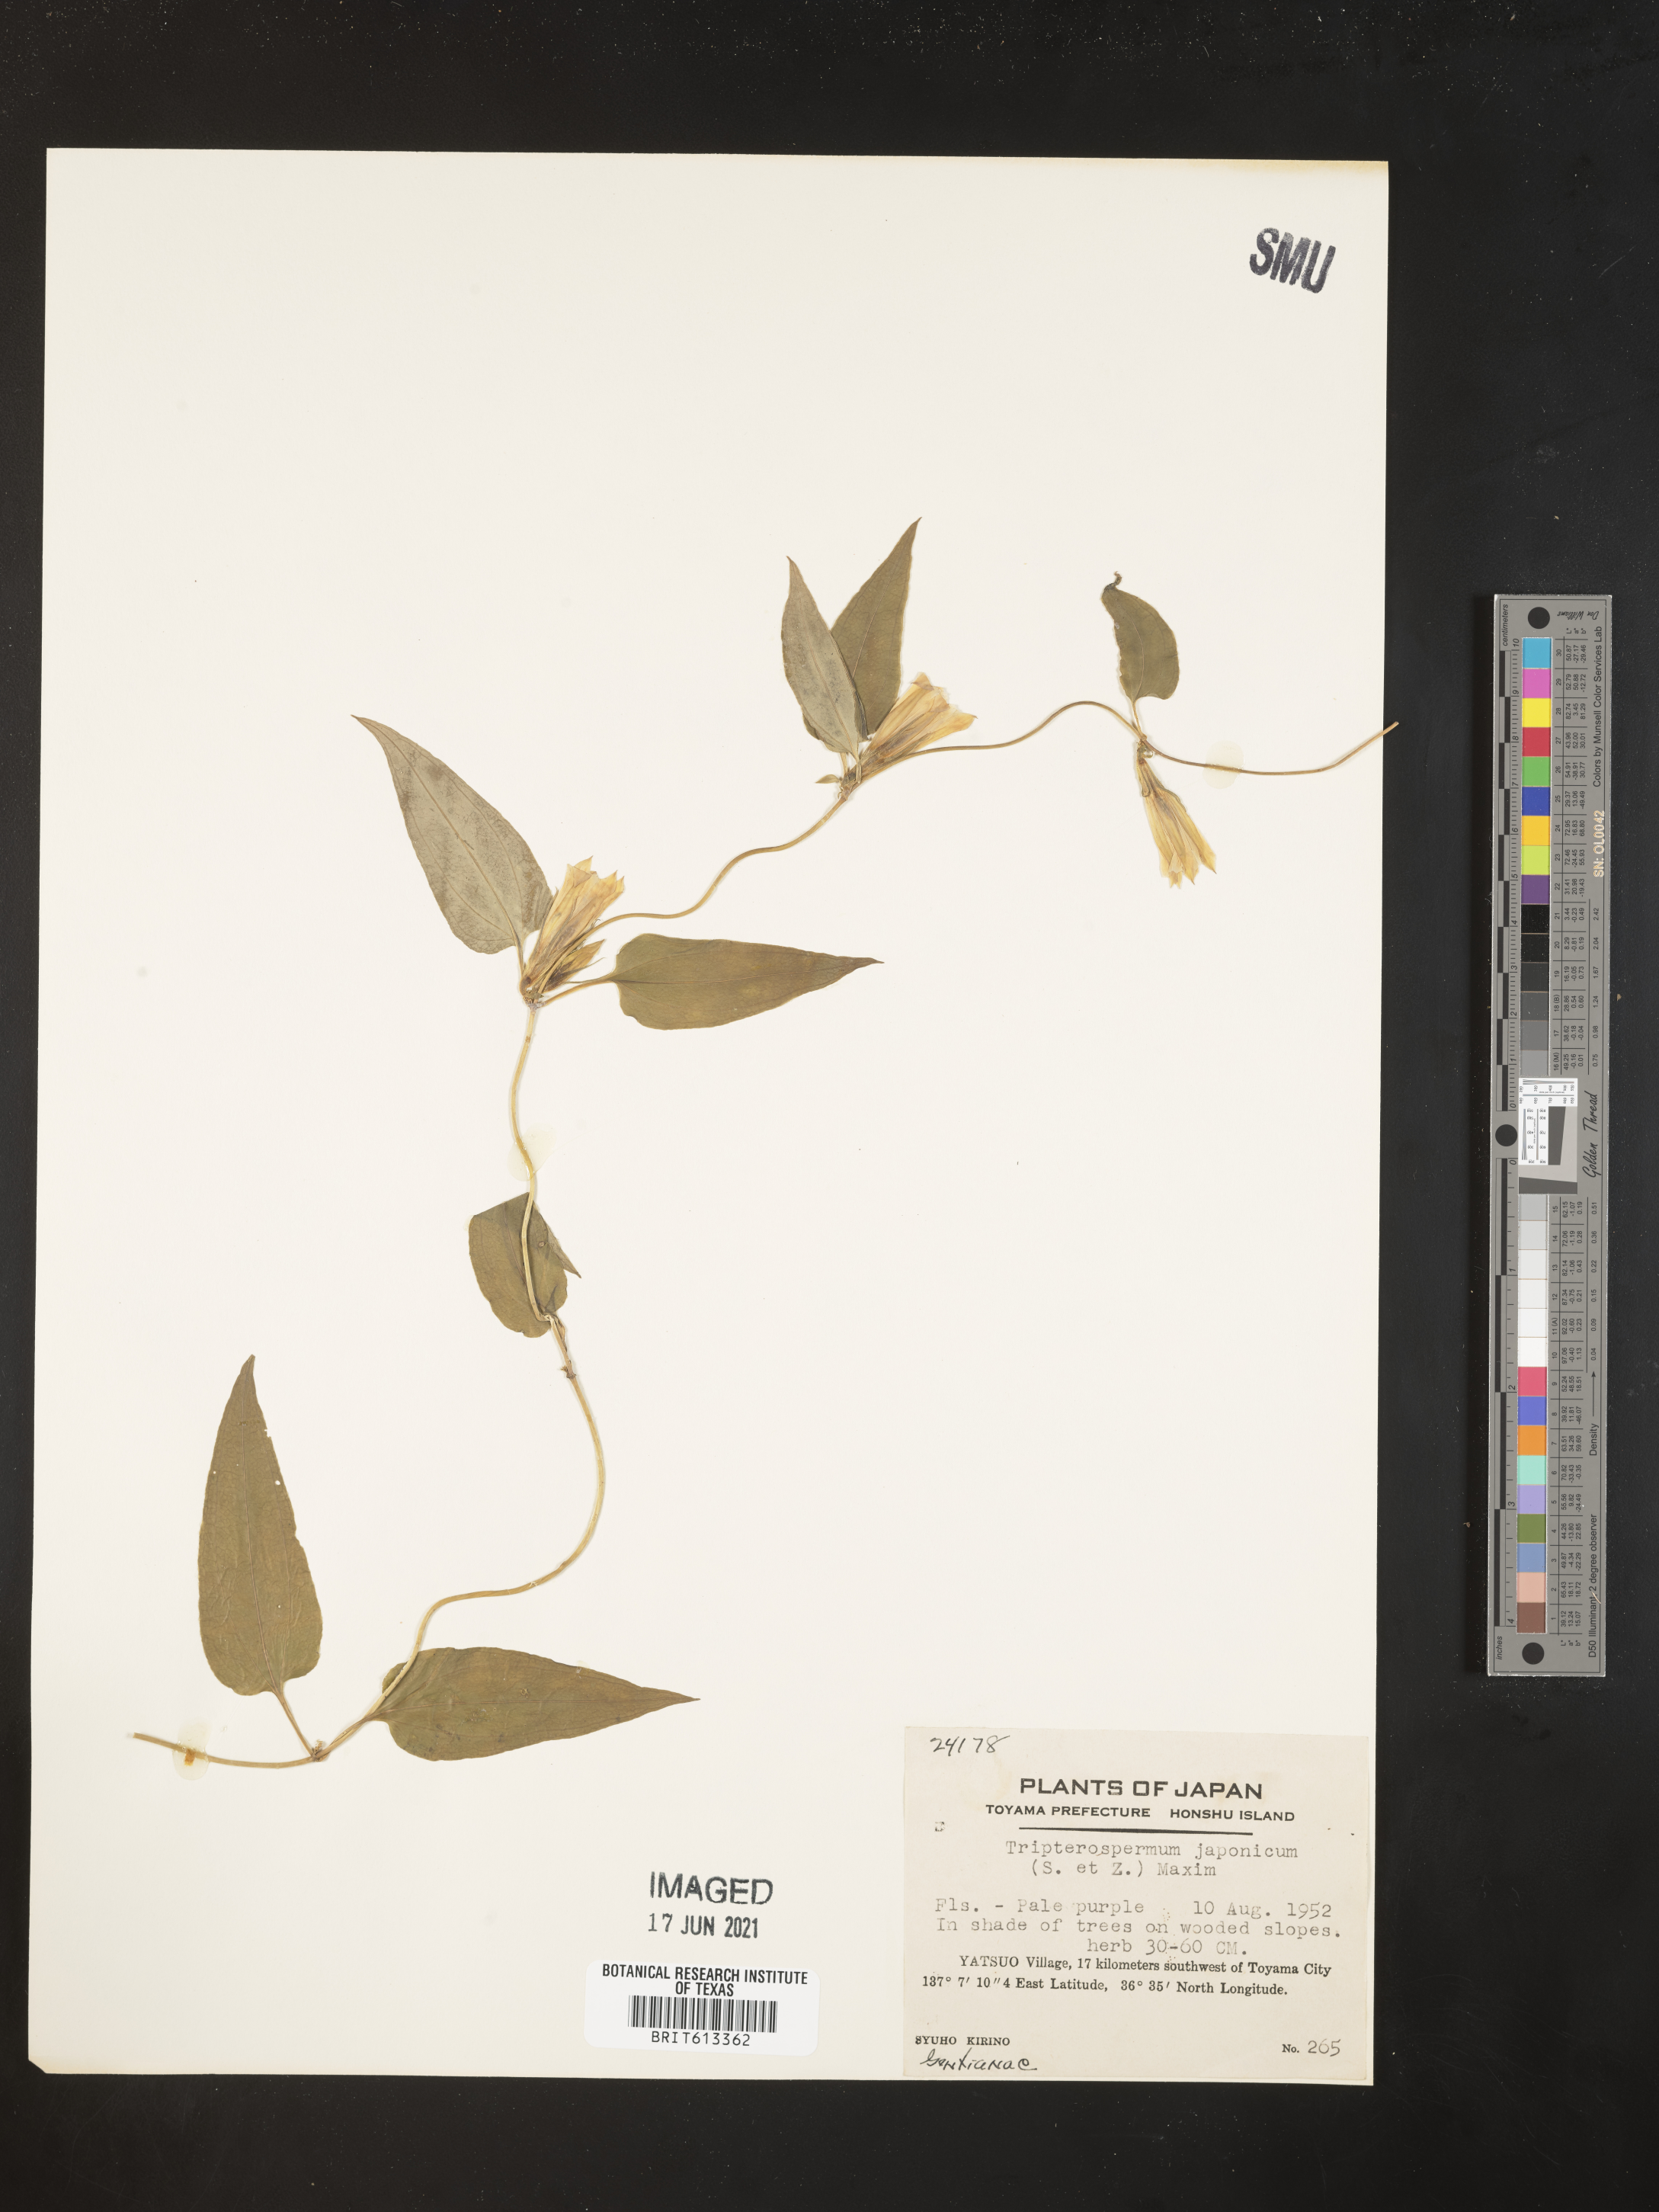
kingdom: Plantae
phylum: Tracheophyta
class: Magnoliopsida
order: Gentianales
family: Gentianaceae
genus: Tripterospermum
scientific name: Tripterospermum trinervium
